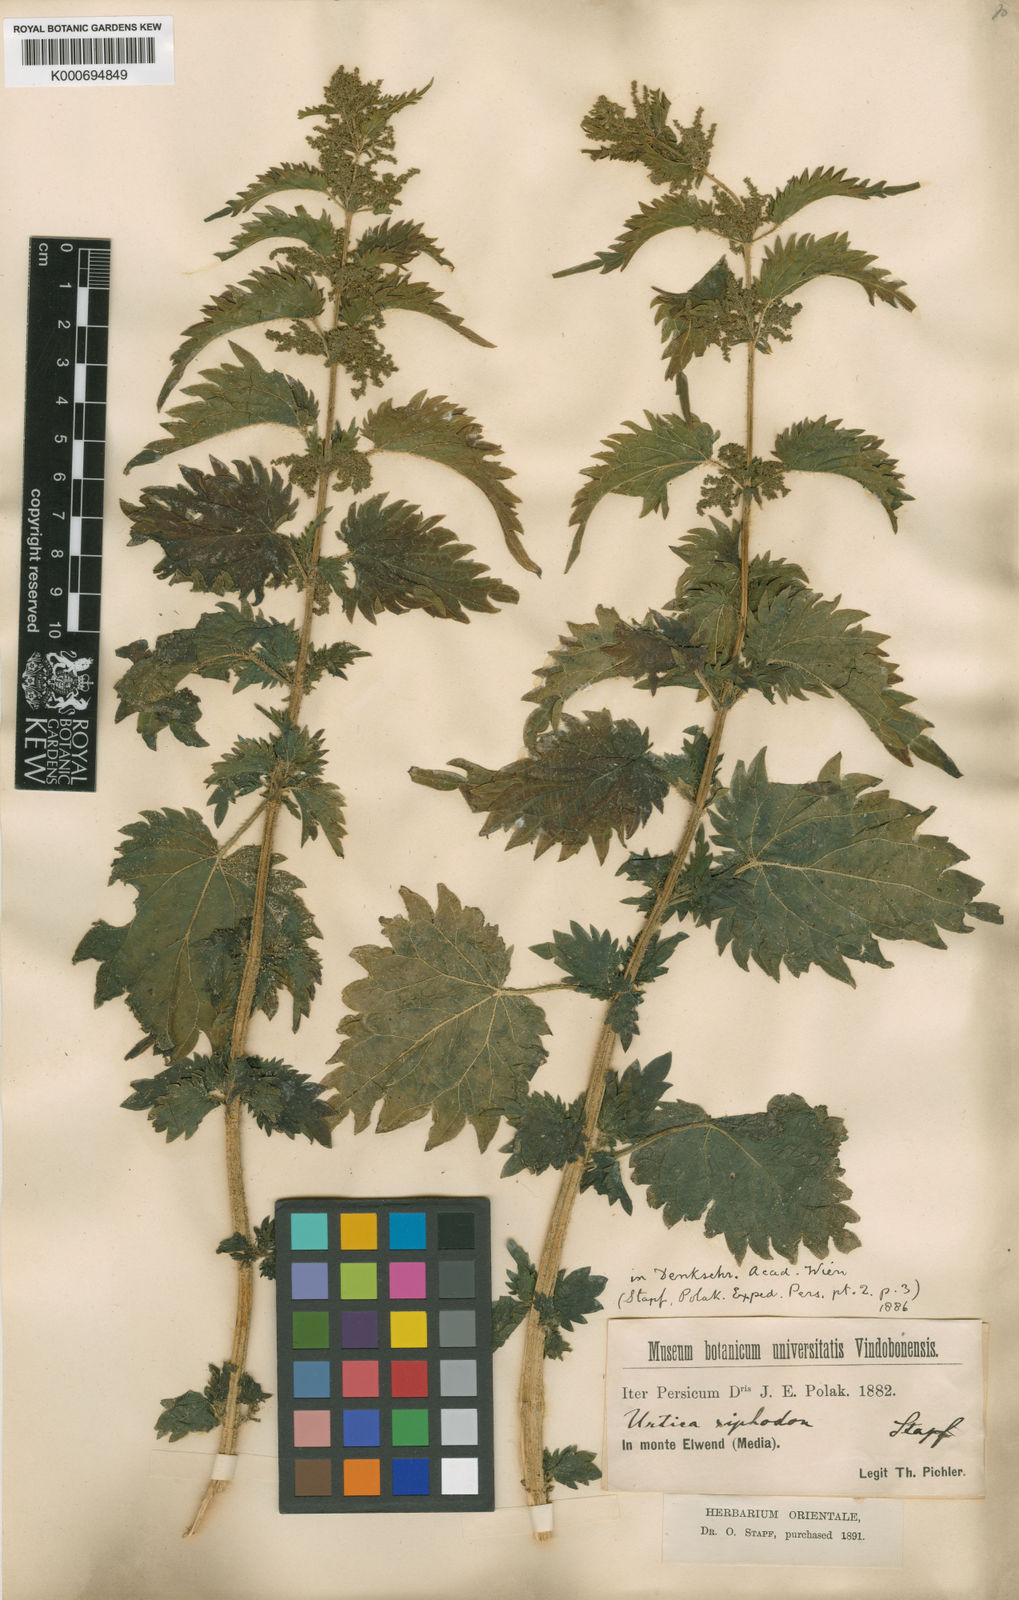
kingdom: Plantae
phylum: Tracheophyta
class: Magnoliopsida
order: Rosales
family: Urticaceae
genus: Urtica
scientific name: Urtica dioica
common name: Common nettle
